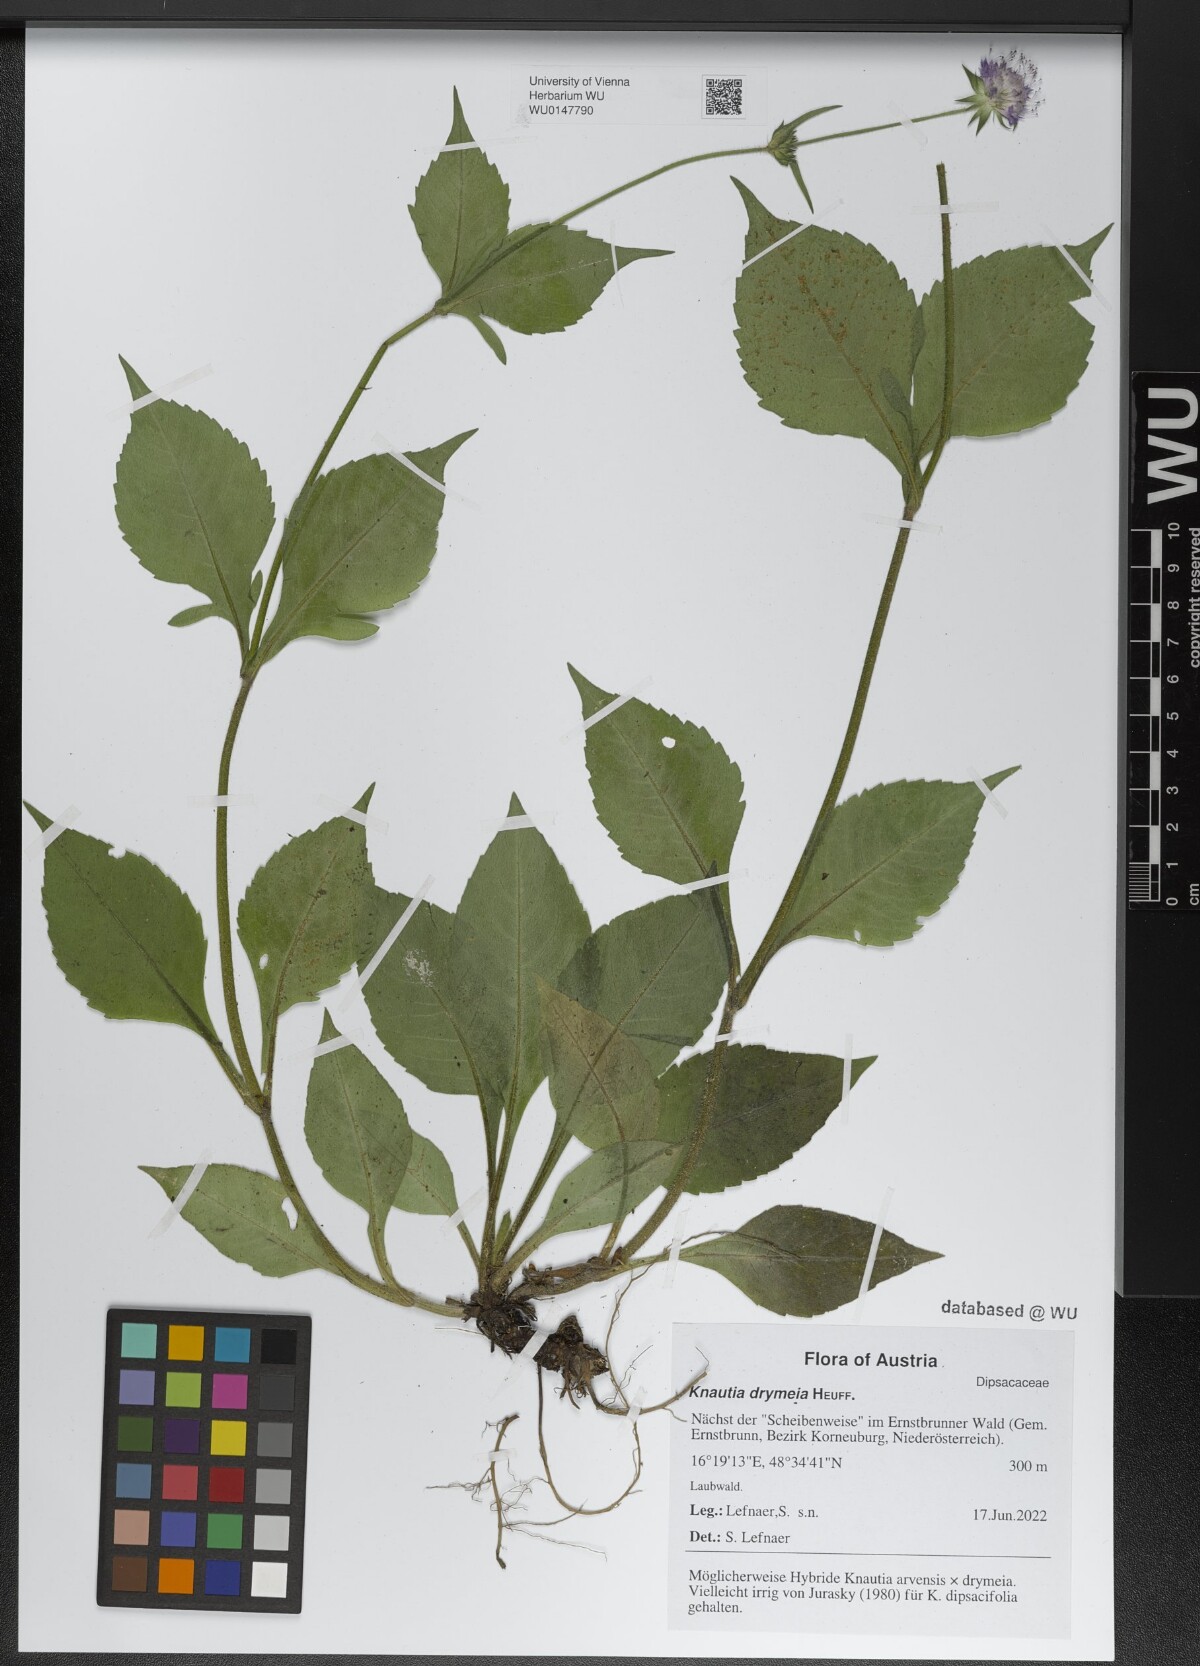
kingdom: Plantae
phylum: Tracheophyta
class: Magnoliopsida
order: Dipsacales
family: Caprifoliaceae
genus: Knautia
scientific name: Knautia drymeia
